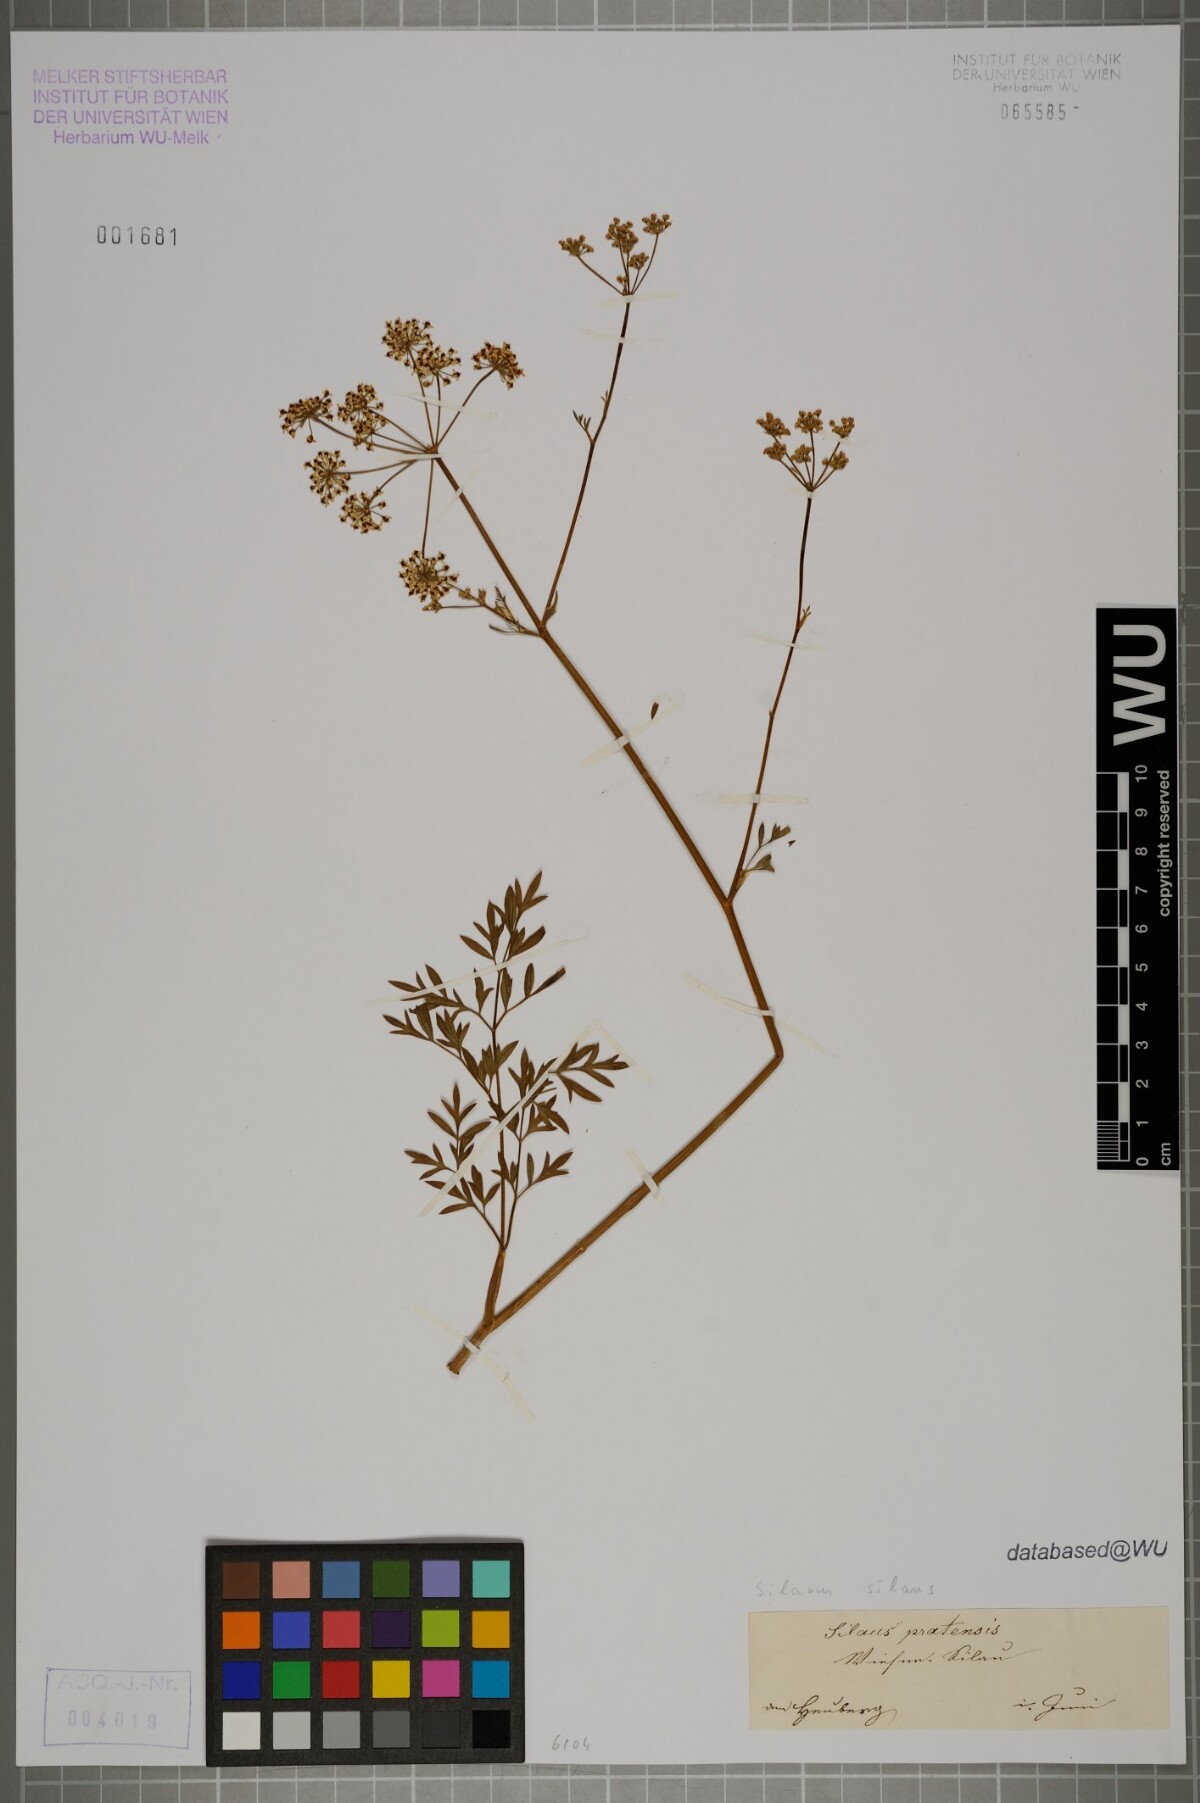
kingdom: Plantae
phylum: Tracheophyta
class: Magnoliopsida
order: Apiales
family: Apiaceae
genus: Silaum
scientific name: Silaum silaus
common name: Pepper-saxifrage
